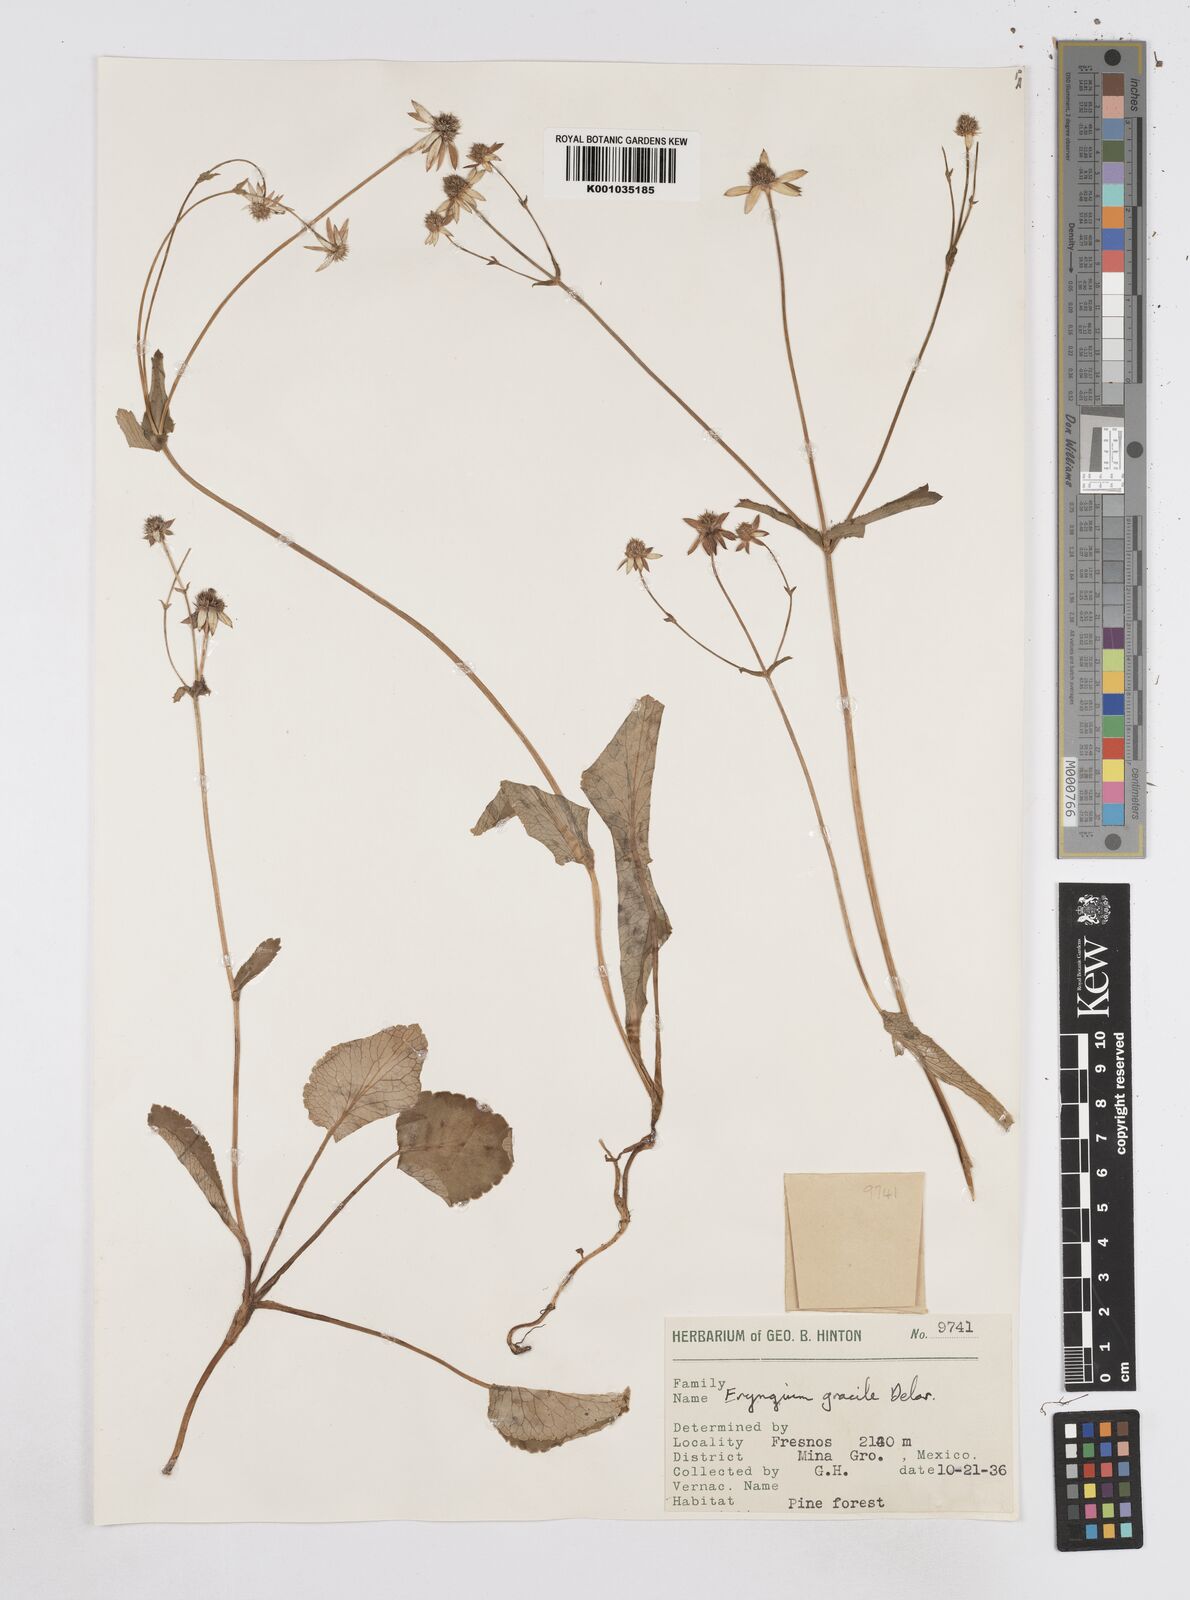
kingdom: Plantae
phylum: Tracheophyta
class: Magnoliopsida
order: Apiales
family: Apiaceae
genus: Eryngium
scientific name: Eryngium gracile
